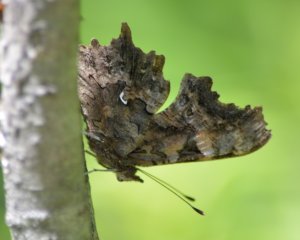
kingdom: Animalia
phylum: Arthropoda
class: Insecta
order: Lepidoptera
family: Nymphalidae
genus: Polygonia
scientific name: Polygonia faunus
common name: Green Comma
